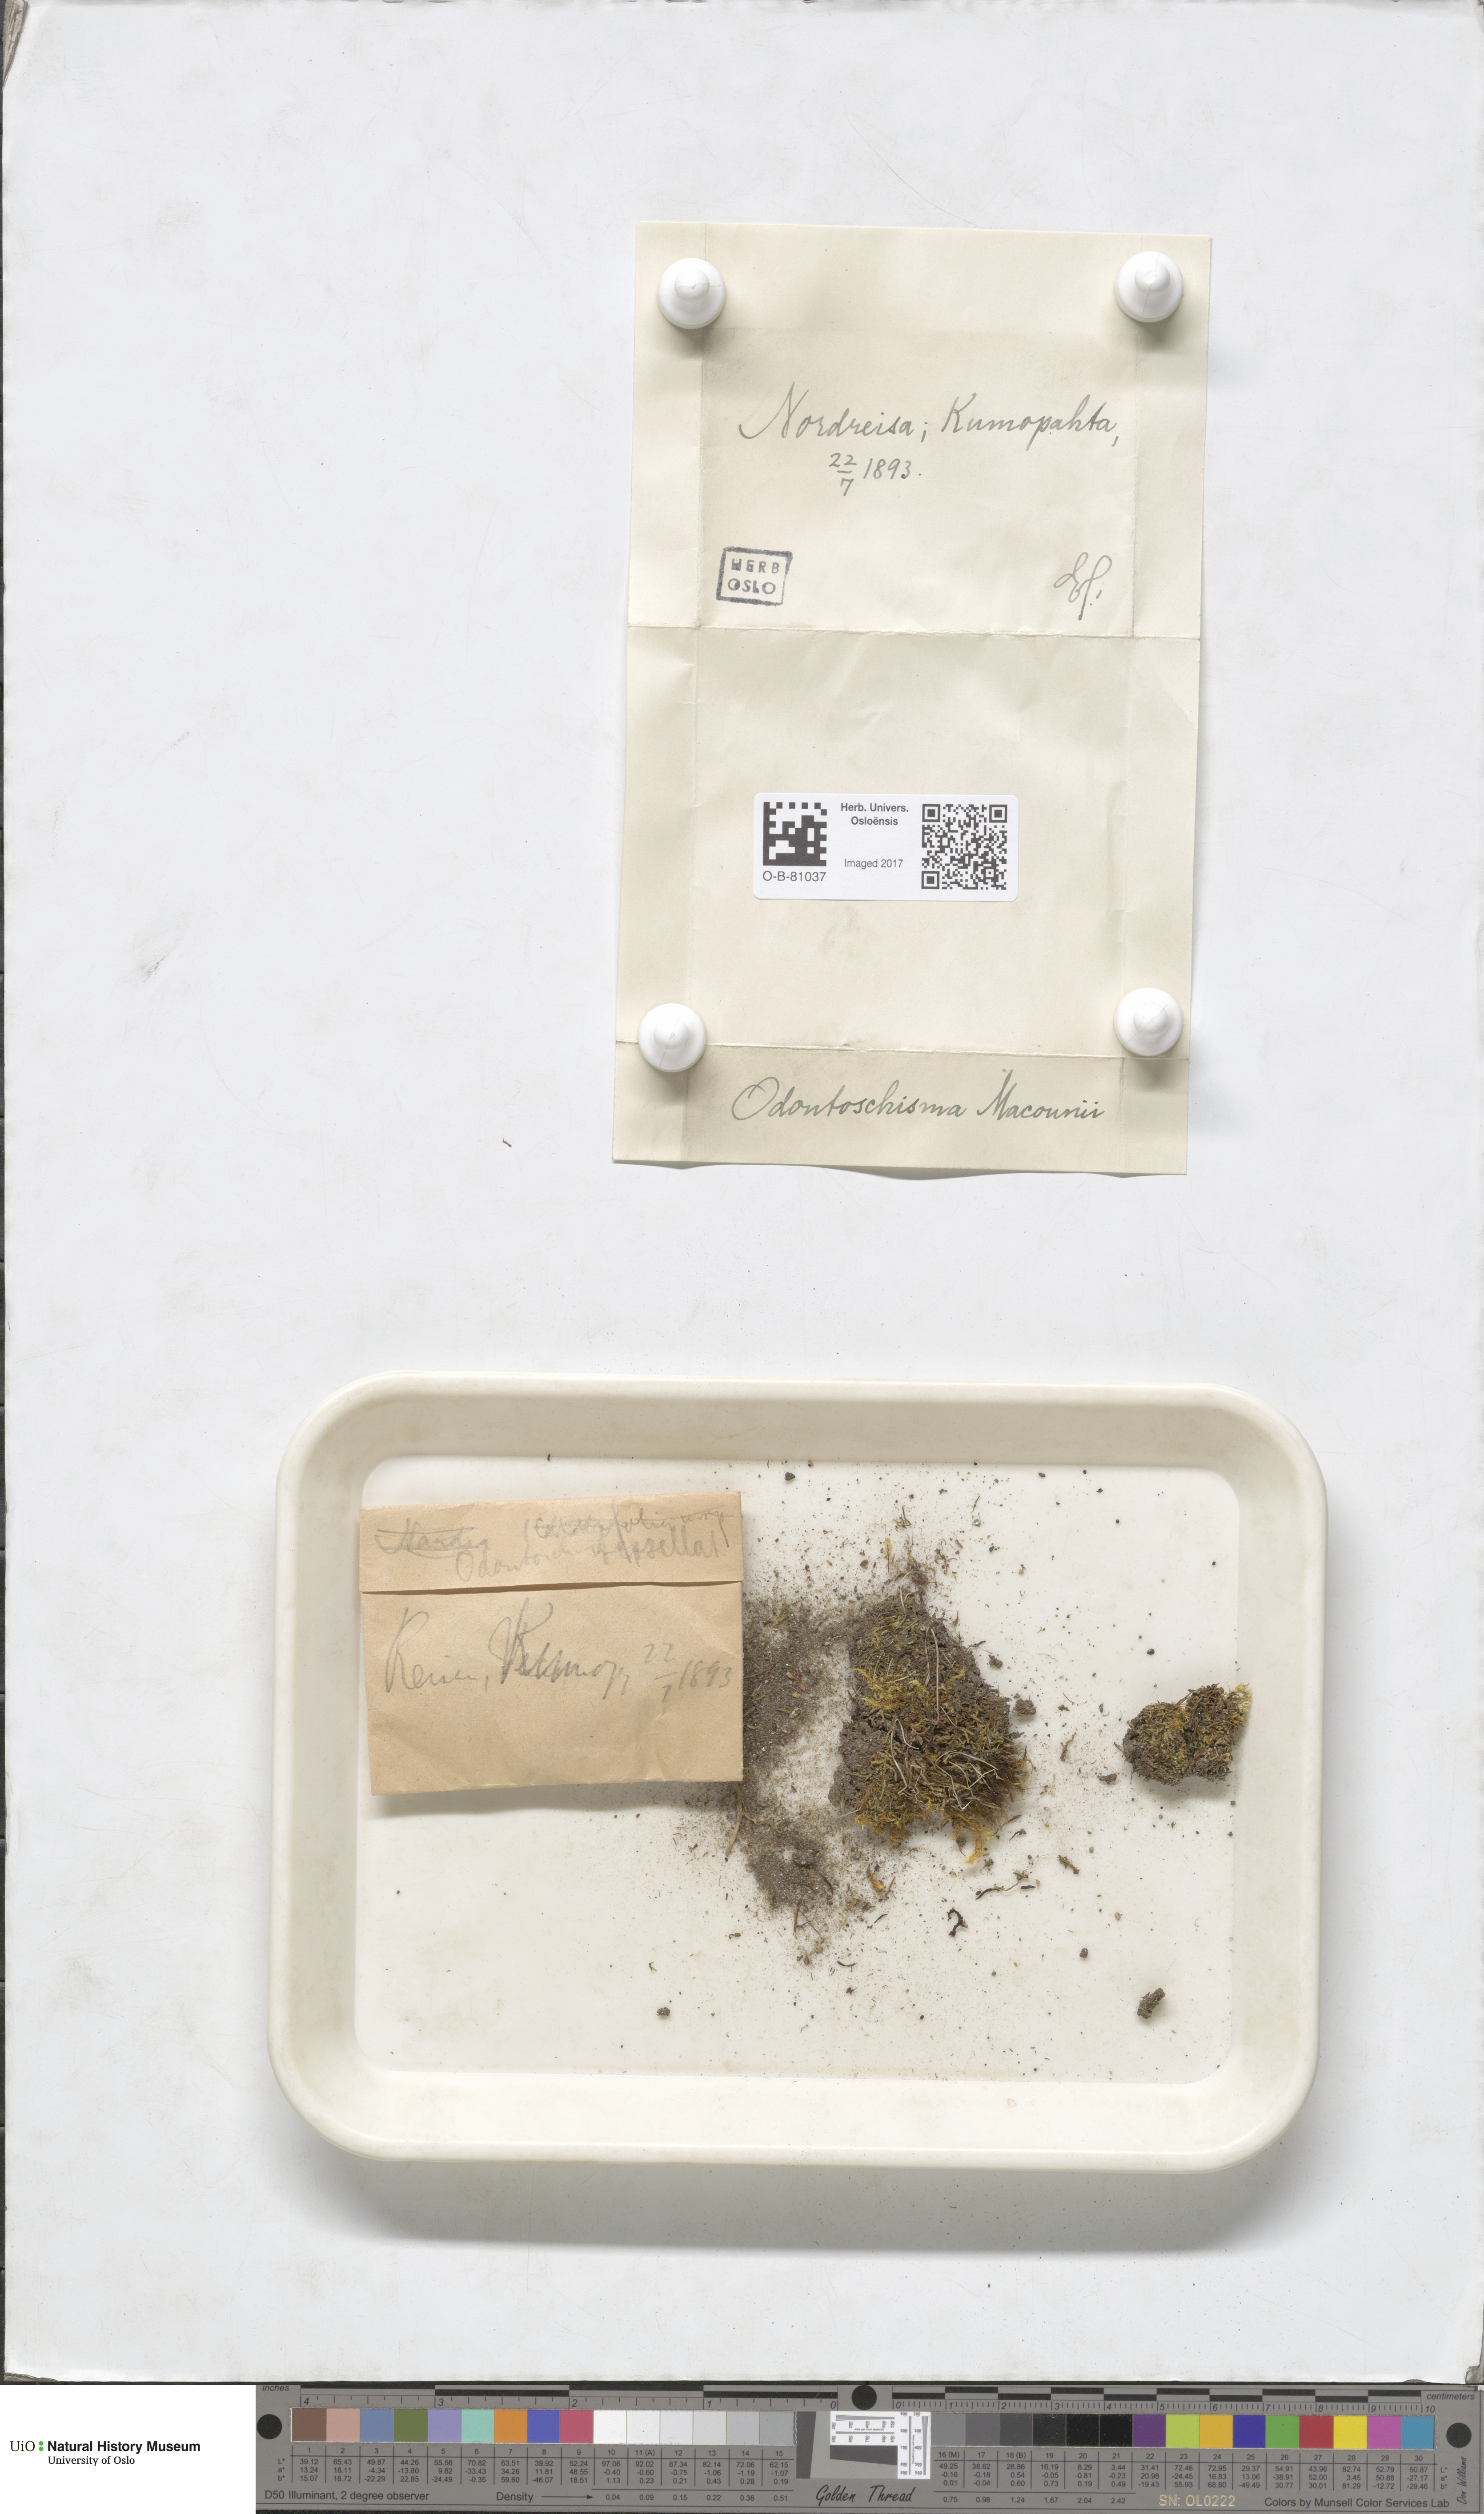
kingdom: Plantae
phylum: Marchantiophyta
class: Jungermanniopsida
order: Jungermanniales
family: Cephaloziaceae
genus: Odontoschisma
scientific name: Odontoschisma macounii
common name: Macoun s flapwort
